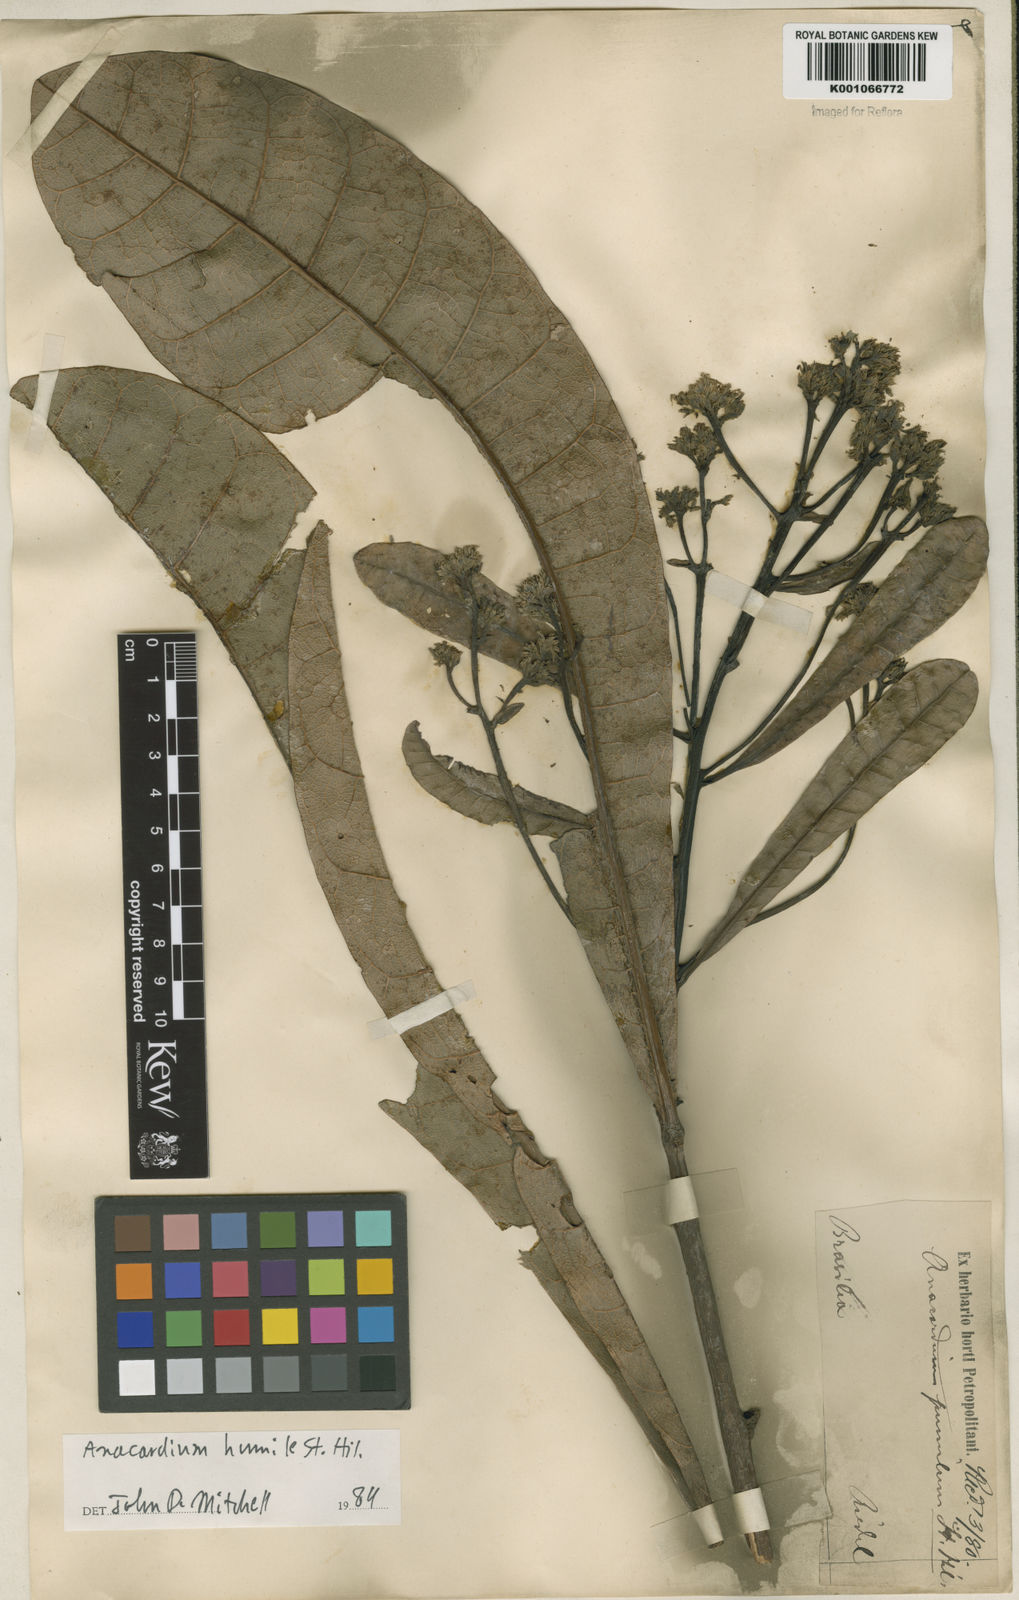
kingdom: Plantae
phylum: Tracheophyta
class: Magnoliopsida
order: Sapindales
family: Anacardiaceae
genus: Anacardium
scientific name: Anacardium humile
